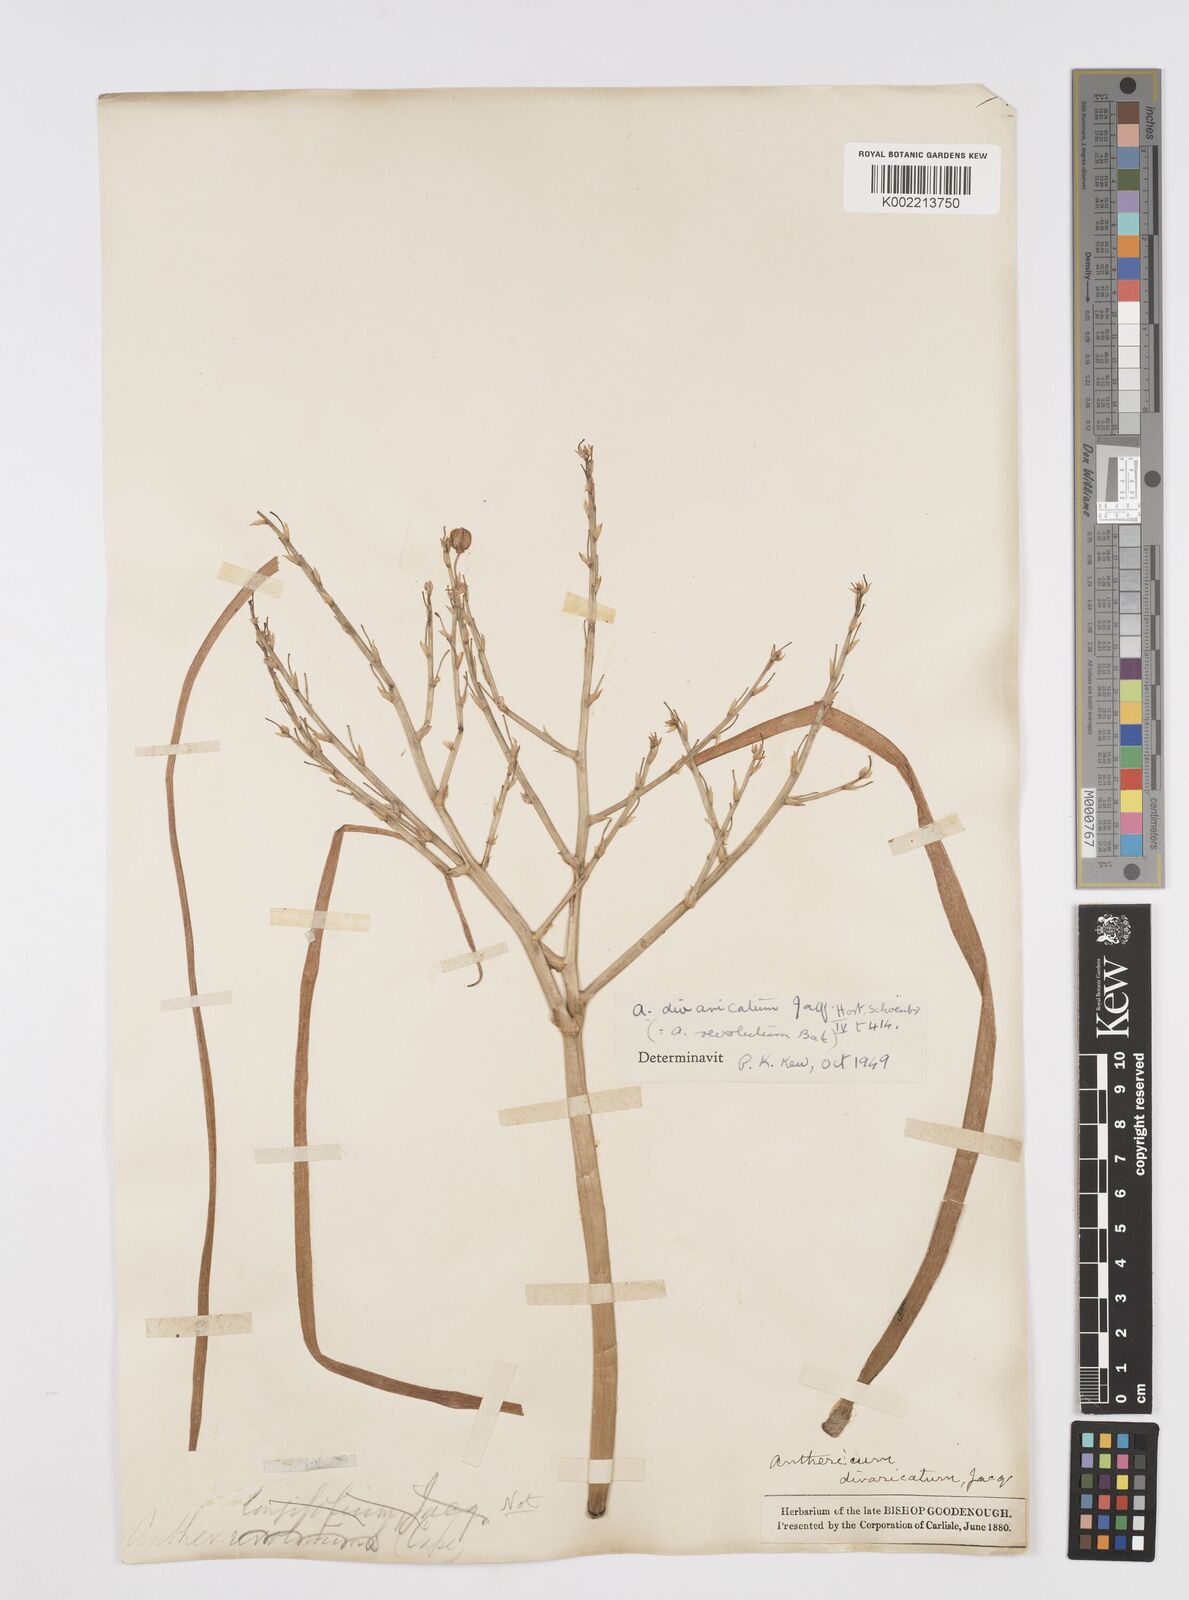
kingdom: Plantae
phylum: Tracheophyta
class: Liliopsida
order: Asparagales
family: Asphodelaceae
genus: Trachyandra
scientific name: Trachyandra divaricata
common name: Dune onionweed
